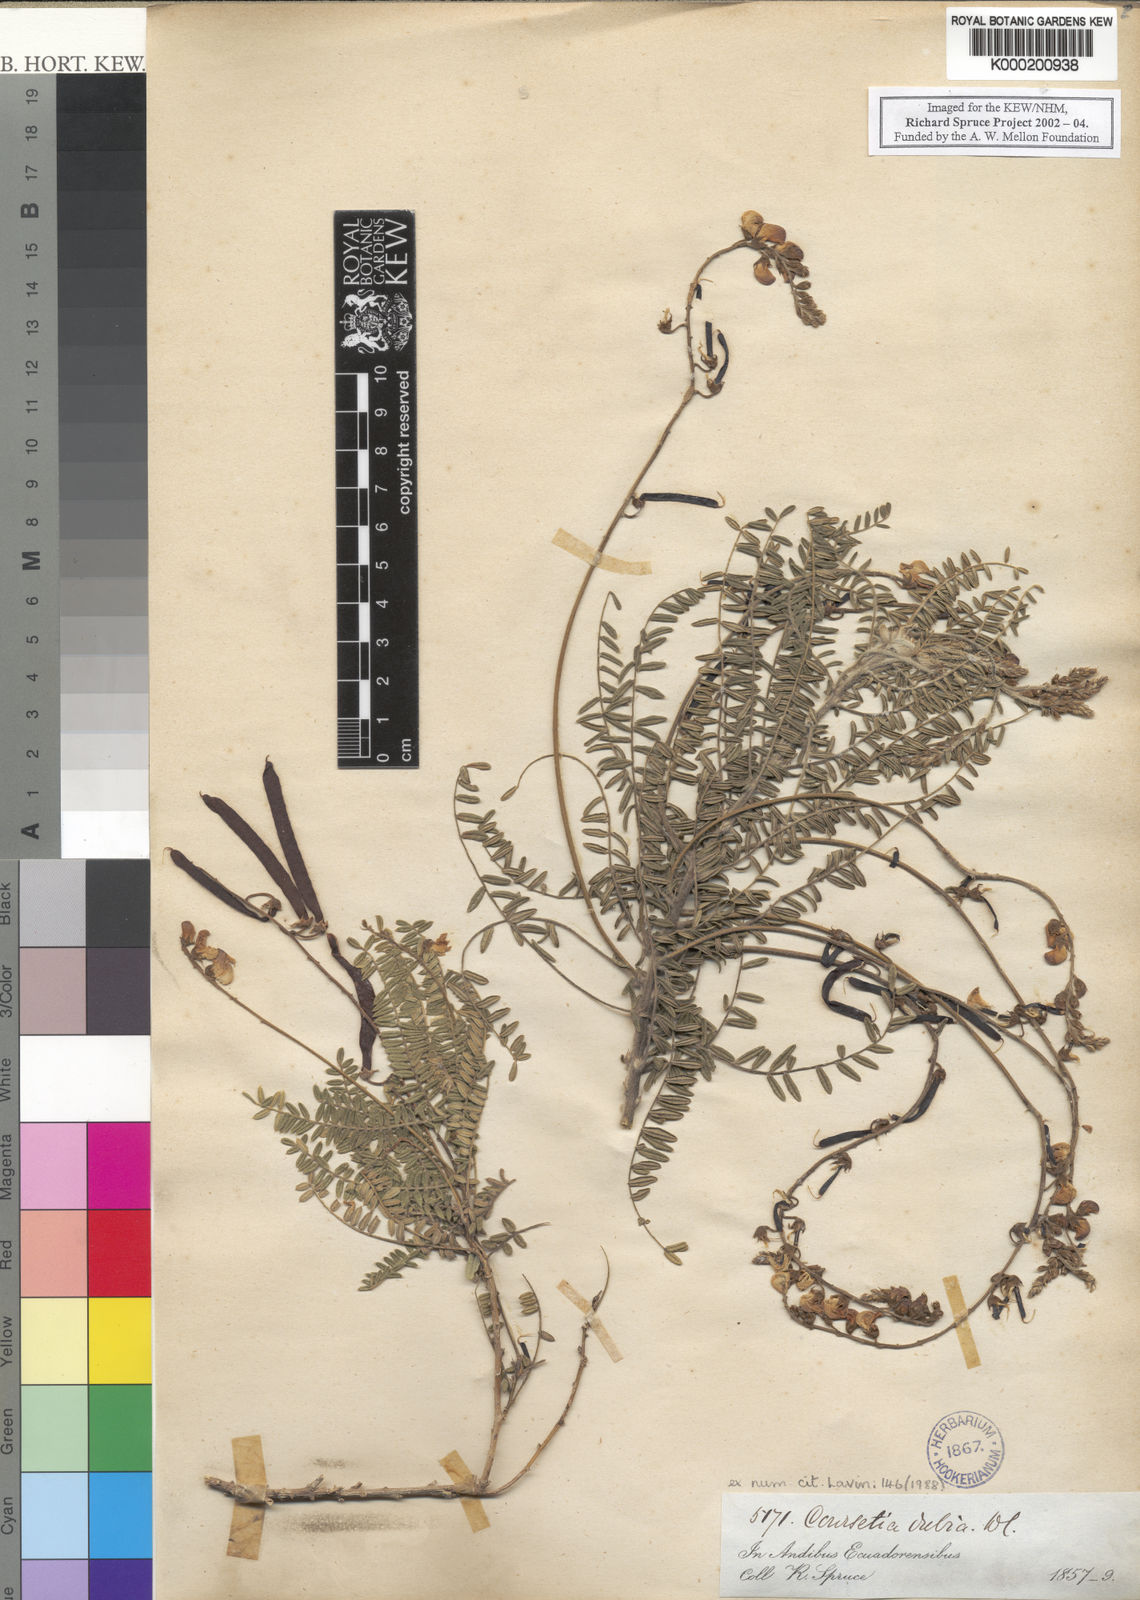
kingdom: Plantae
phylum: Tracheophyta
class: Magnoliopsida
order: Fabales
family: Fabaceae
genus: Coursetia
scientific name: Coursetia dubia
